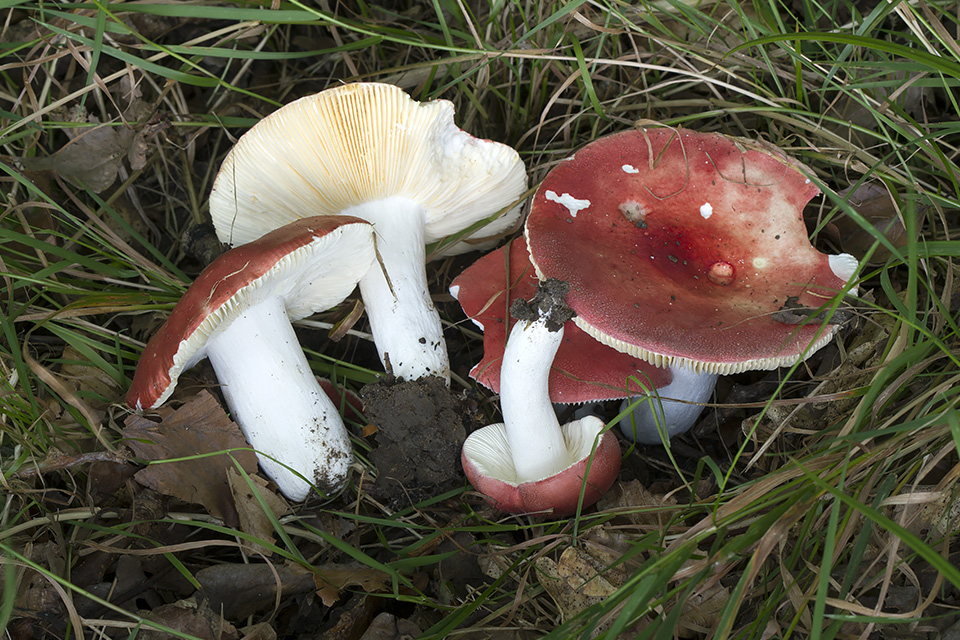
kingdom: Fungi
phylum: Basidiomycota
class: Agaricomycetes
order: Russulales
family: Russulaceae
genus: Russula
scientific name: Russula pseudointegra
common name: cinnoberrød skørhat
